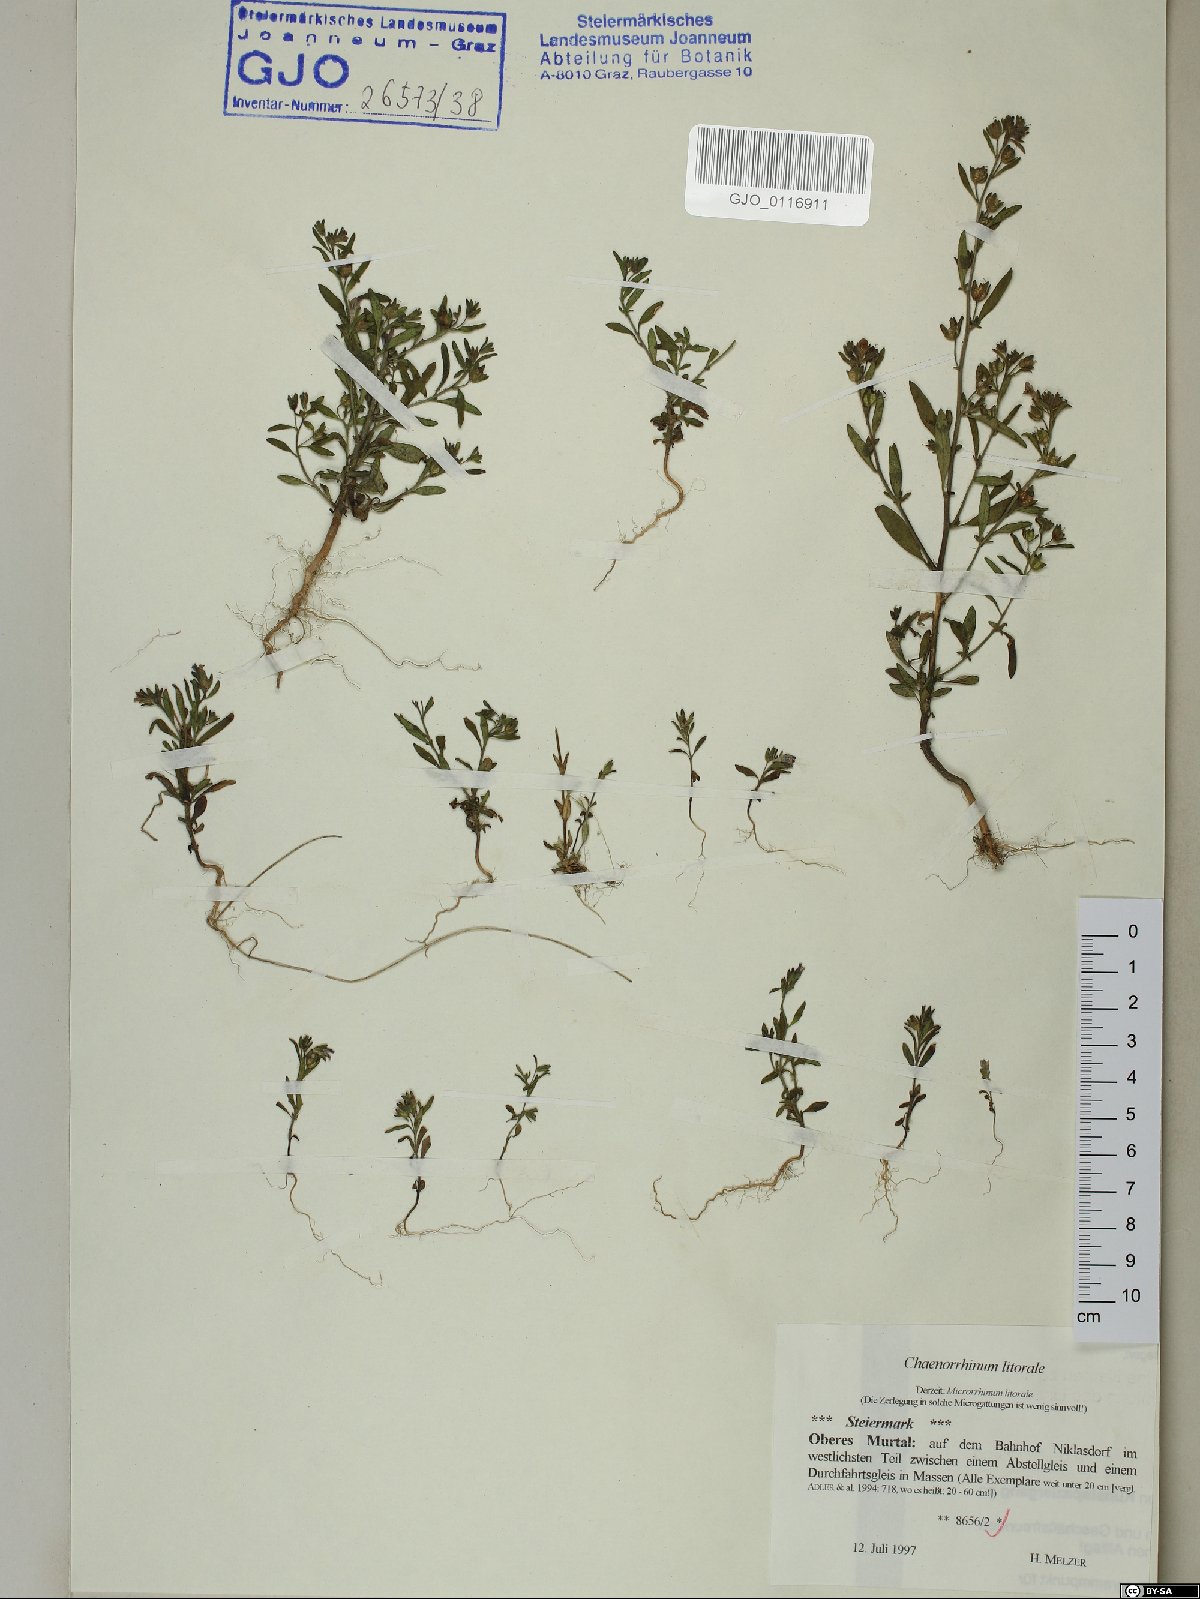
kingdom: Plantae
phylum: Tracheophyta
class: Magnoliopsida
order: Lamiales
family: Plantaginaceae
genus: Chaenorhinum
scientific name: Chaenorhinum litorale
